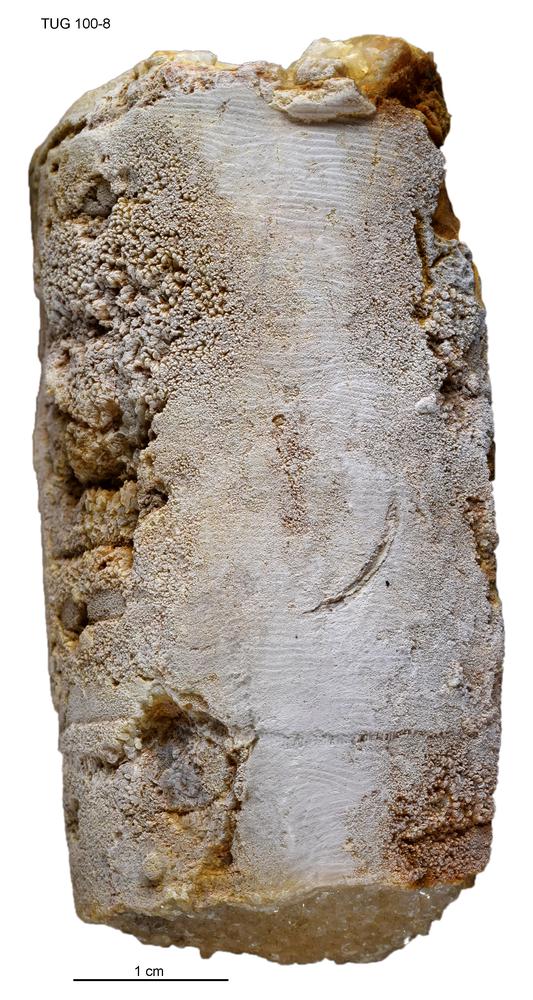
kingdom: Animalia
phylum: Mollusca
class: Cephalopoda
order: Nautilida
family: Nautilidae
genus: Orthonybyoceras
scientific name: Orthonybyoceras isakari
